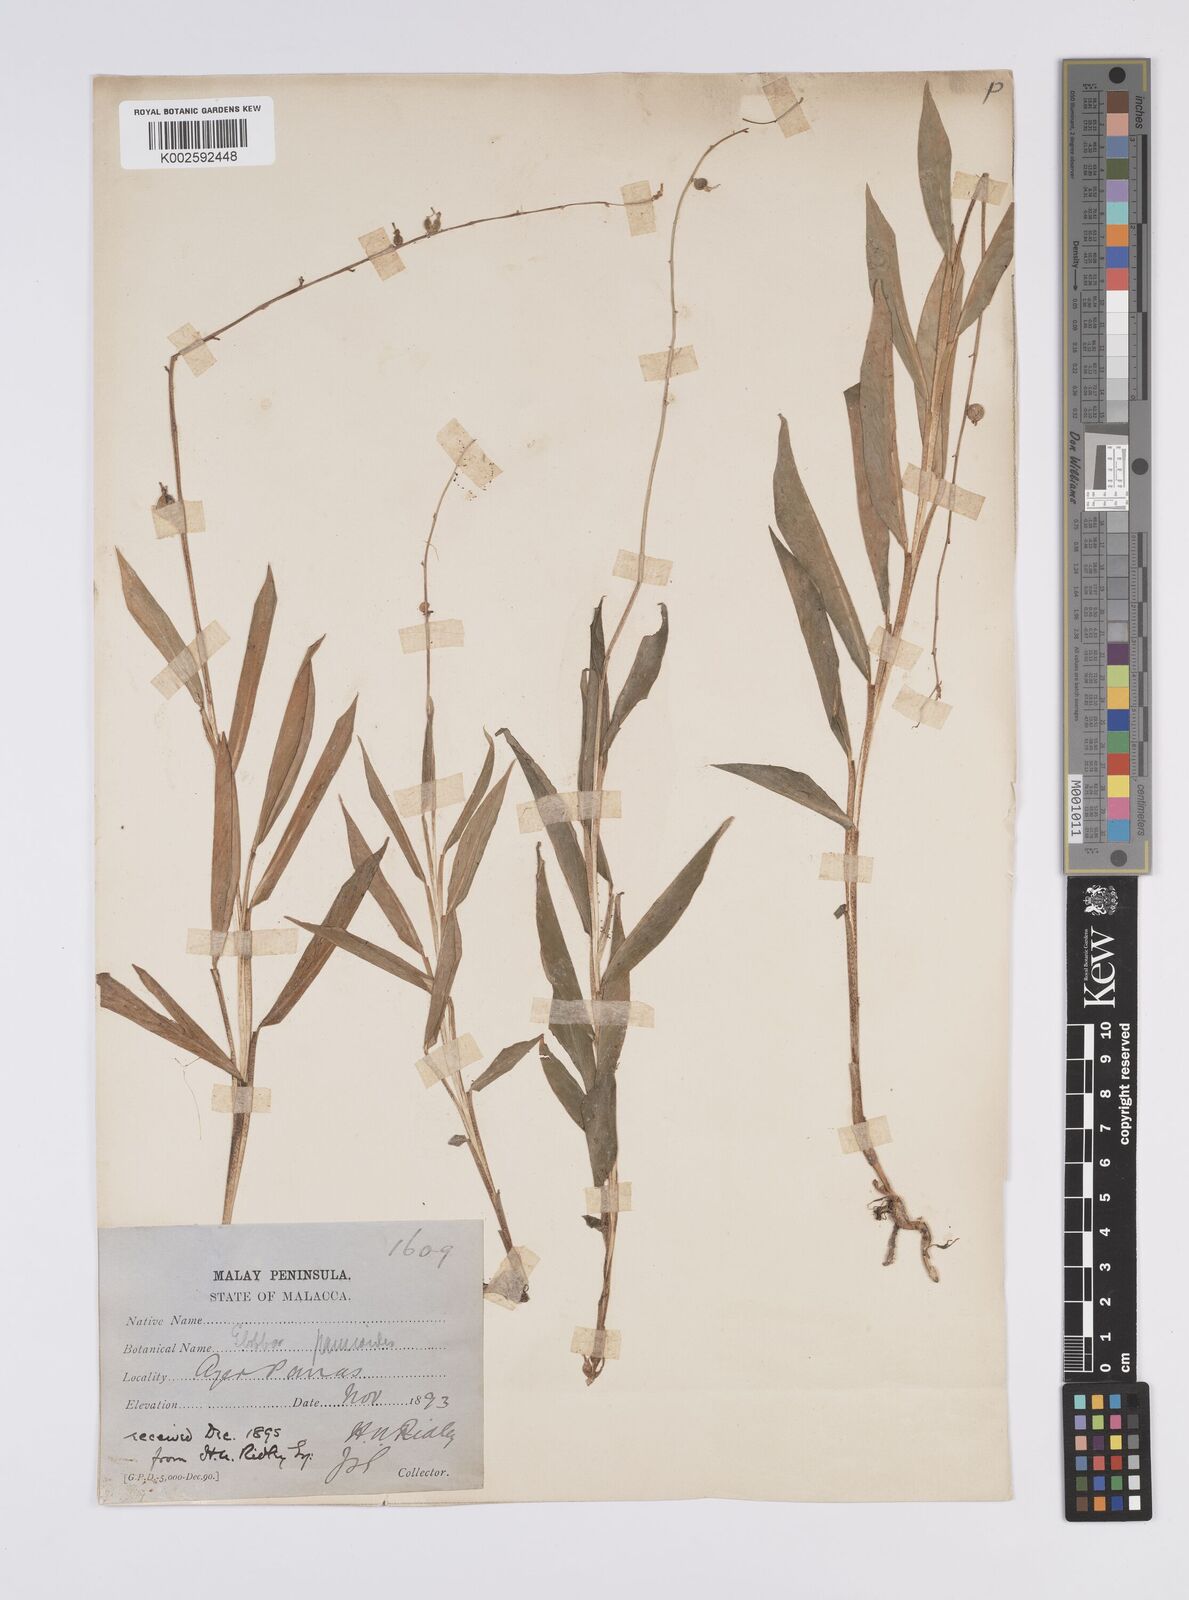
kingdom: Plantae
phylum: Tracheophyta
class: Liliopsida
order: Zingiberales
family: Zingiberaceae
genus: Globba
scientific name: Globba pendula
